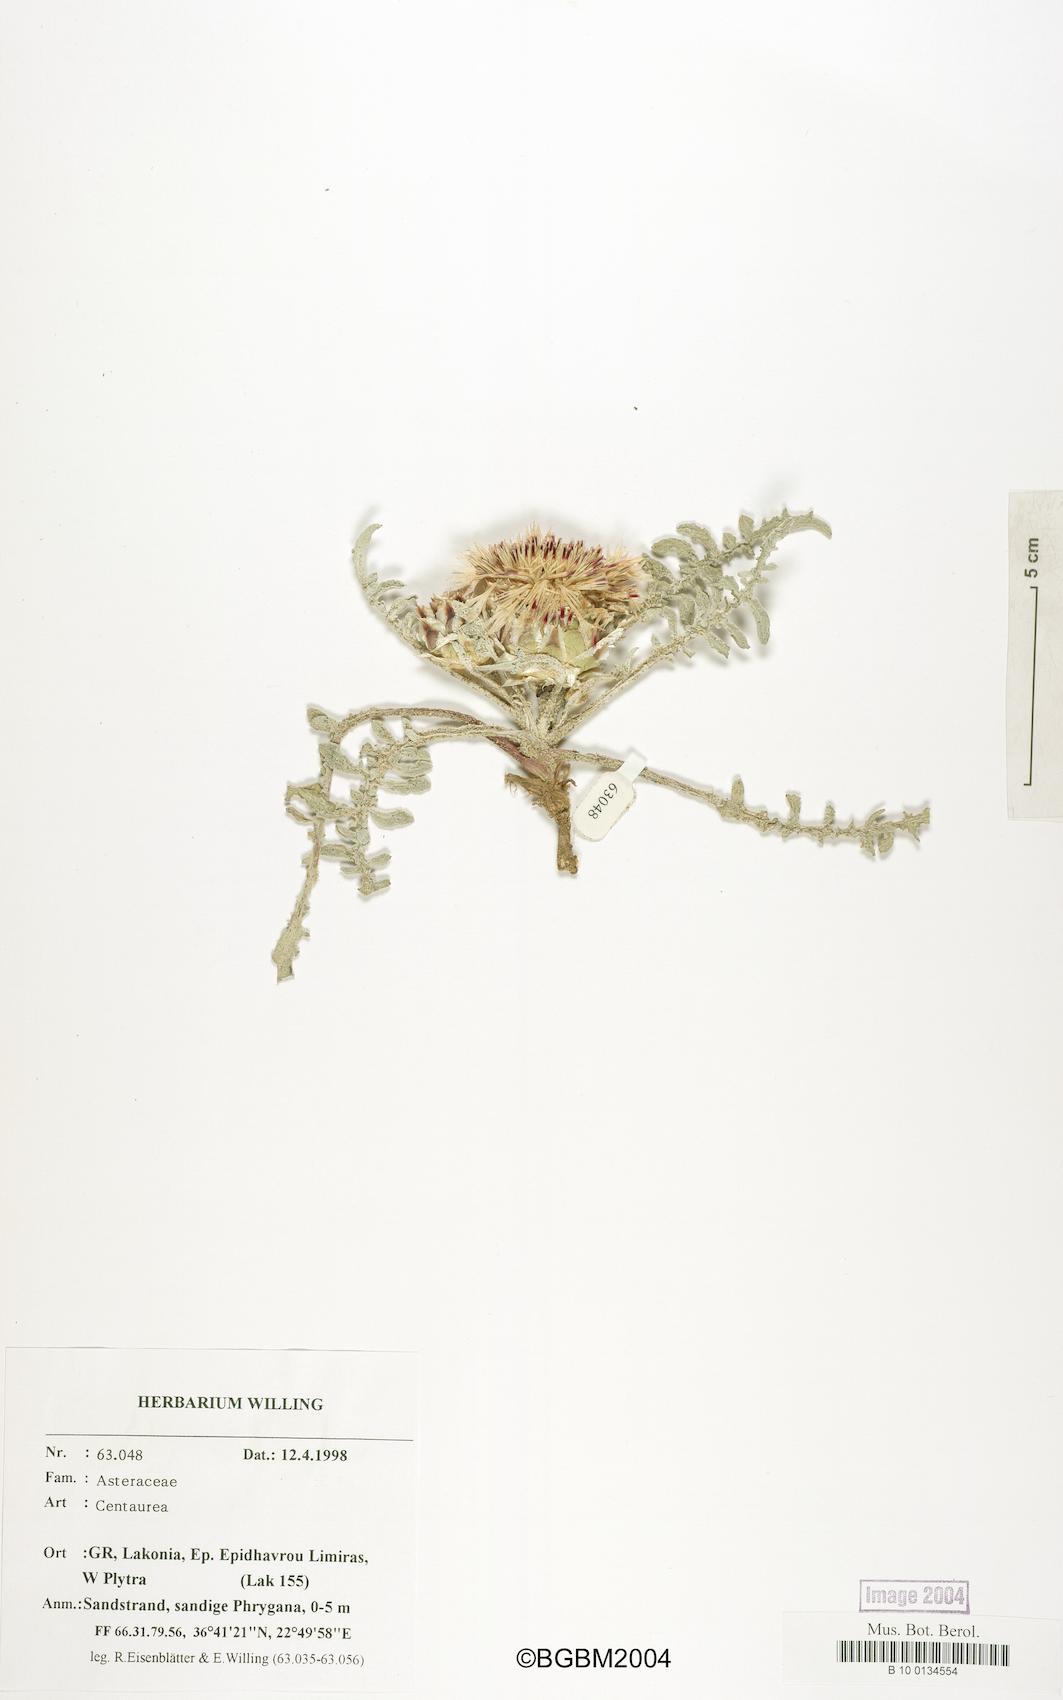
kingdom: Plantae
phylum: Tracheophyta
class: Magnoliopsida
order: Asterales
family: Asteraceae
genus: Centaurea
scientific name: Centaurea
